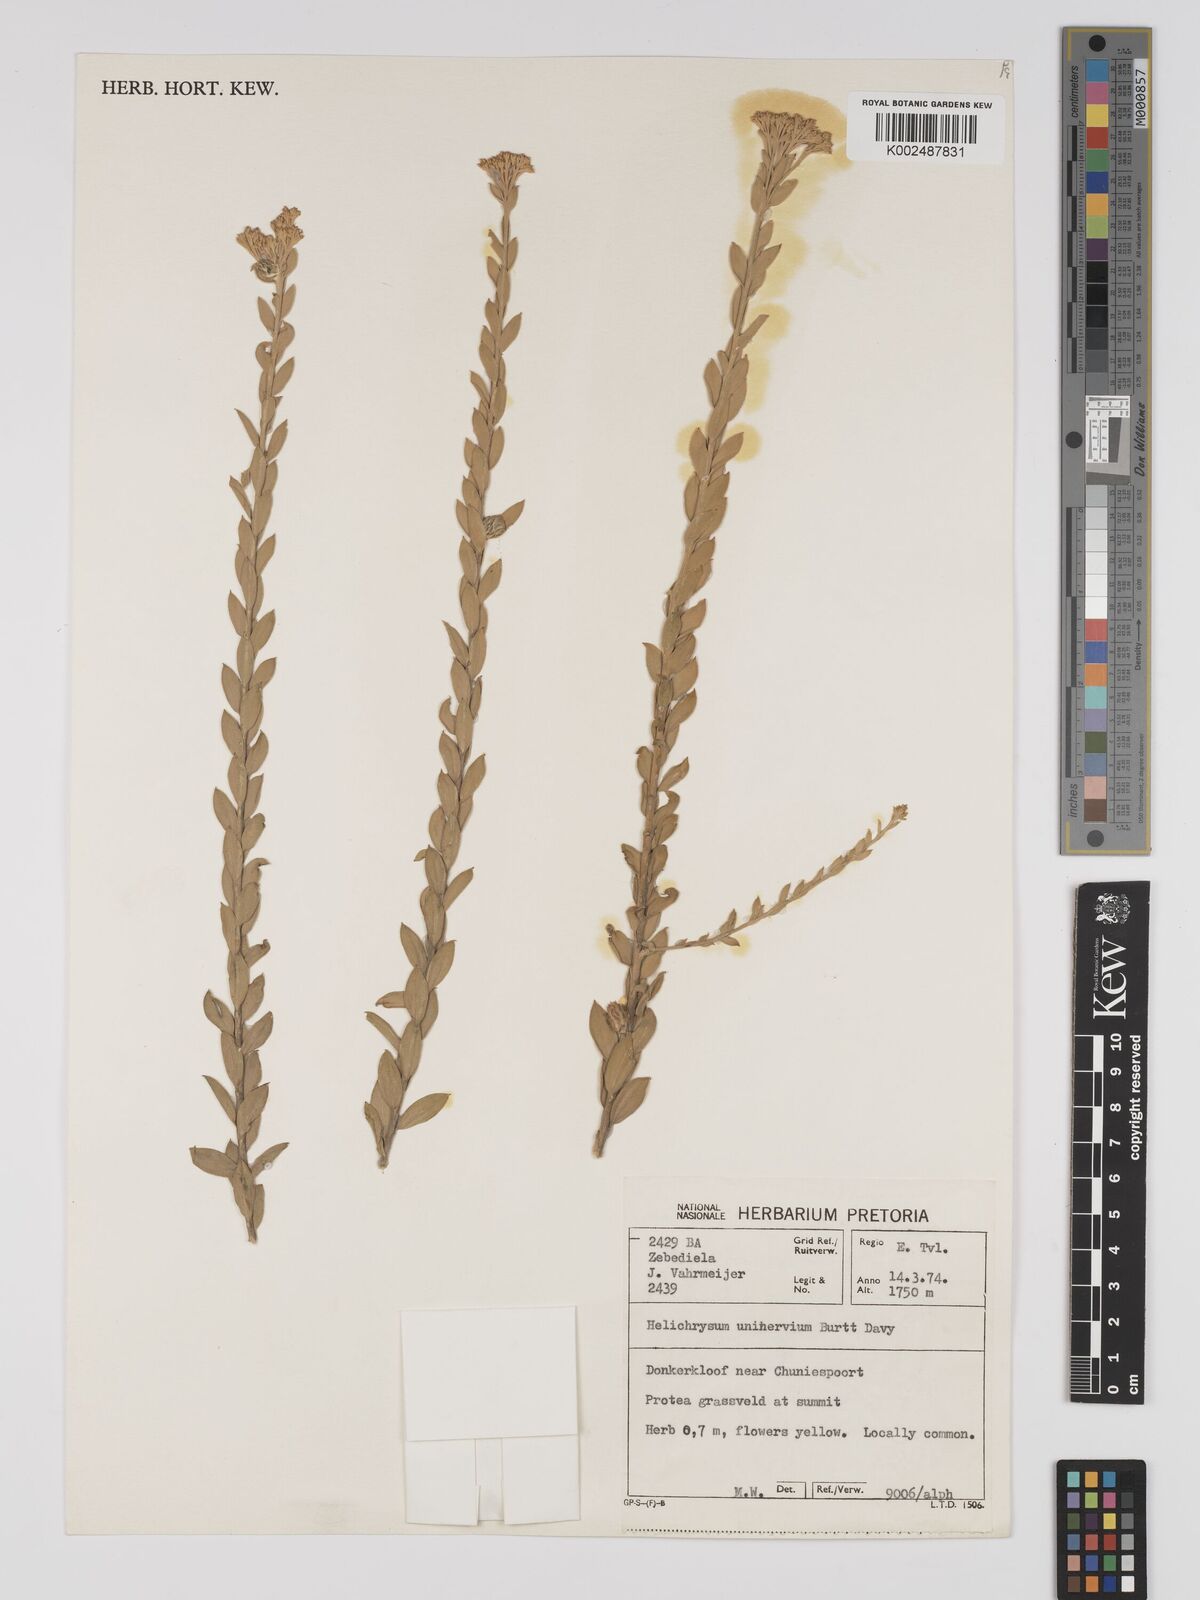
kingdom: Plantae
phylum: Tracheophyta
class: Magnoliopsida
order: Asterales
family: Asteraceae
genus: Helichrysum
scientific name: Helichrysum uninervium
